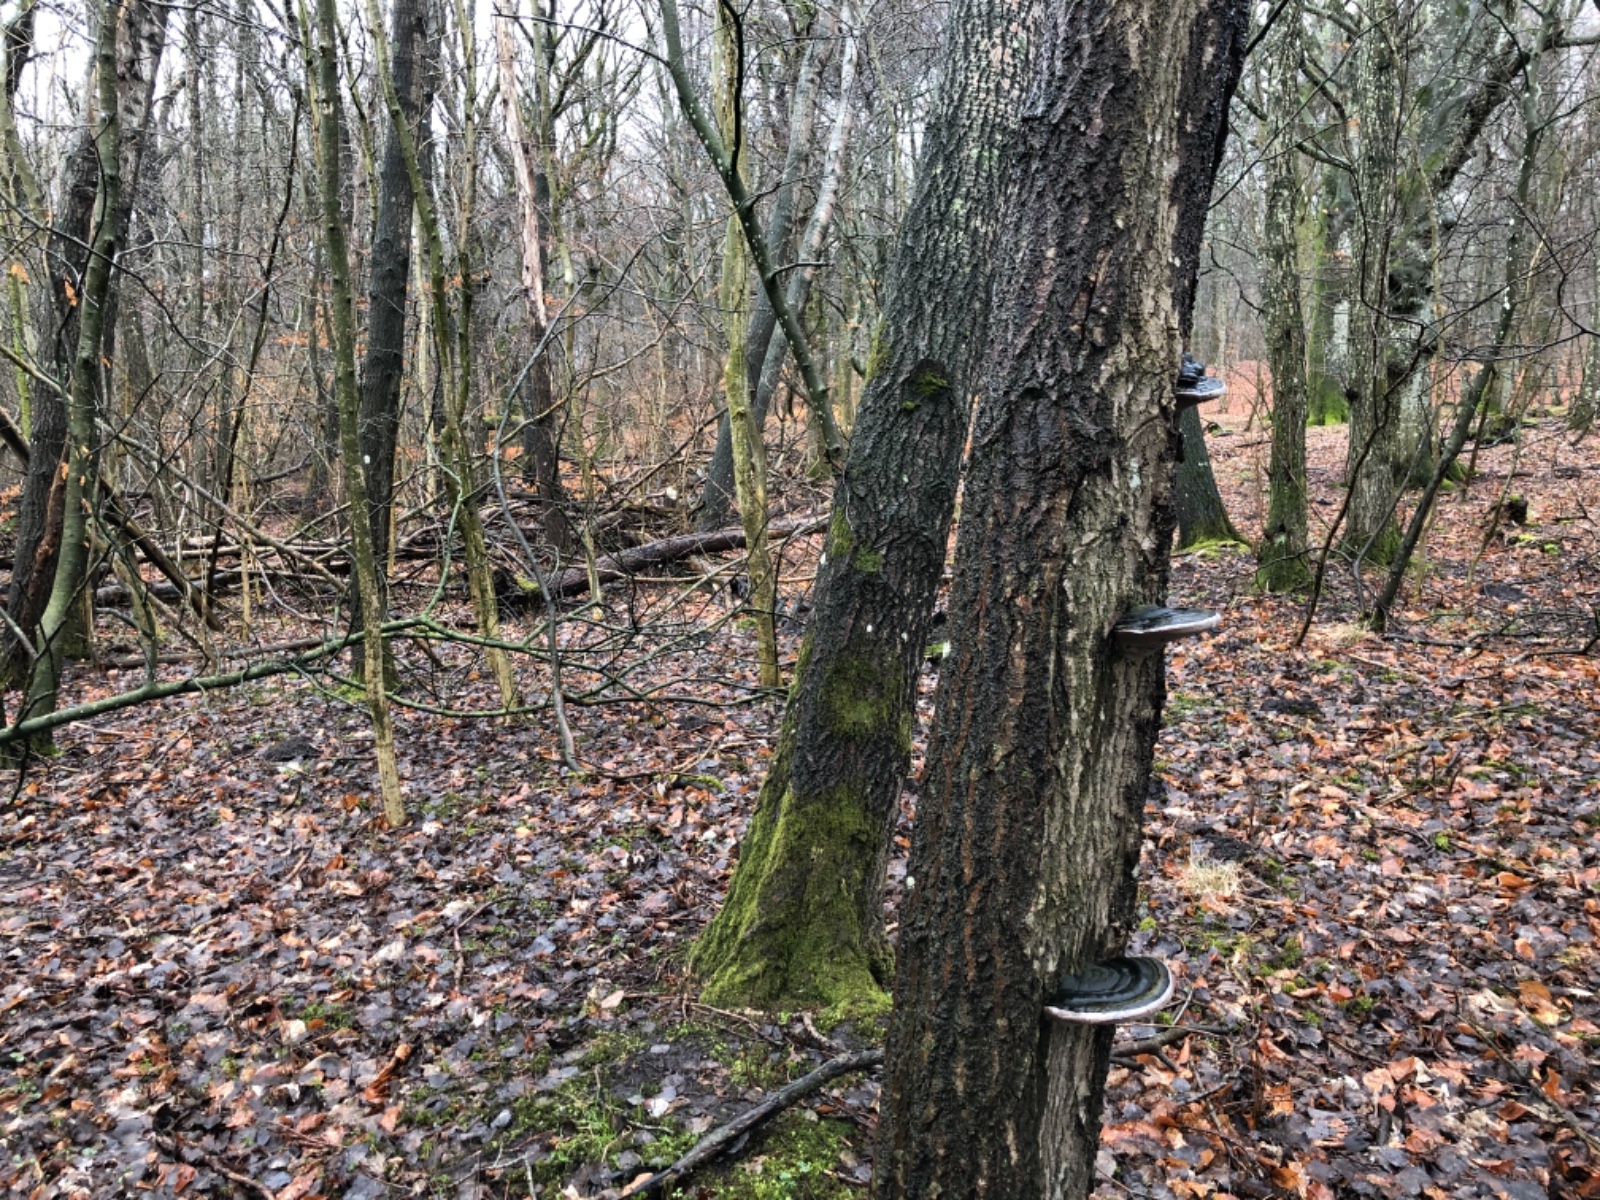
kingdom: Fungi
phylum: Basidiomycota
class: Agaricomycetes
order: Hymenochaetales
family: Hymenochaetaceae
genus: Phellinus
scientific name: Phellinus populicola
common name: poppel-ildporesvamp
